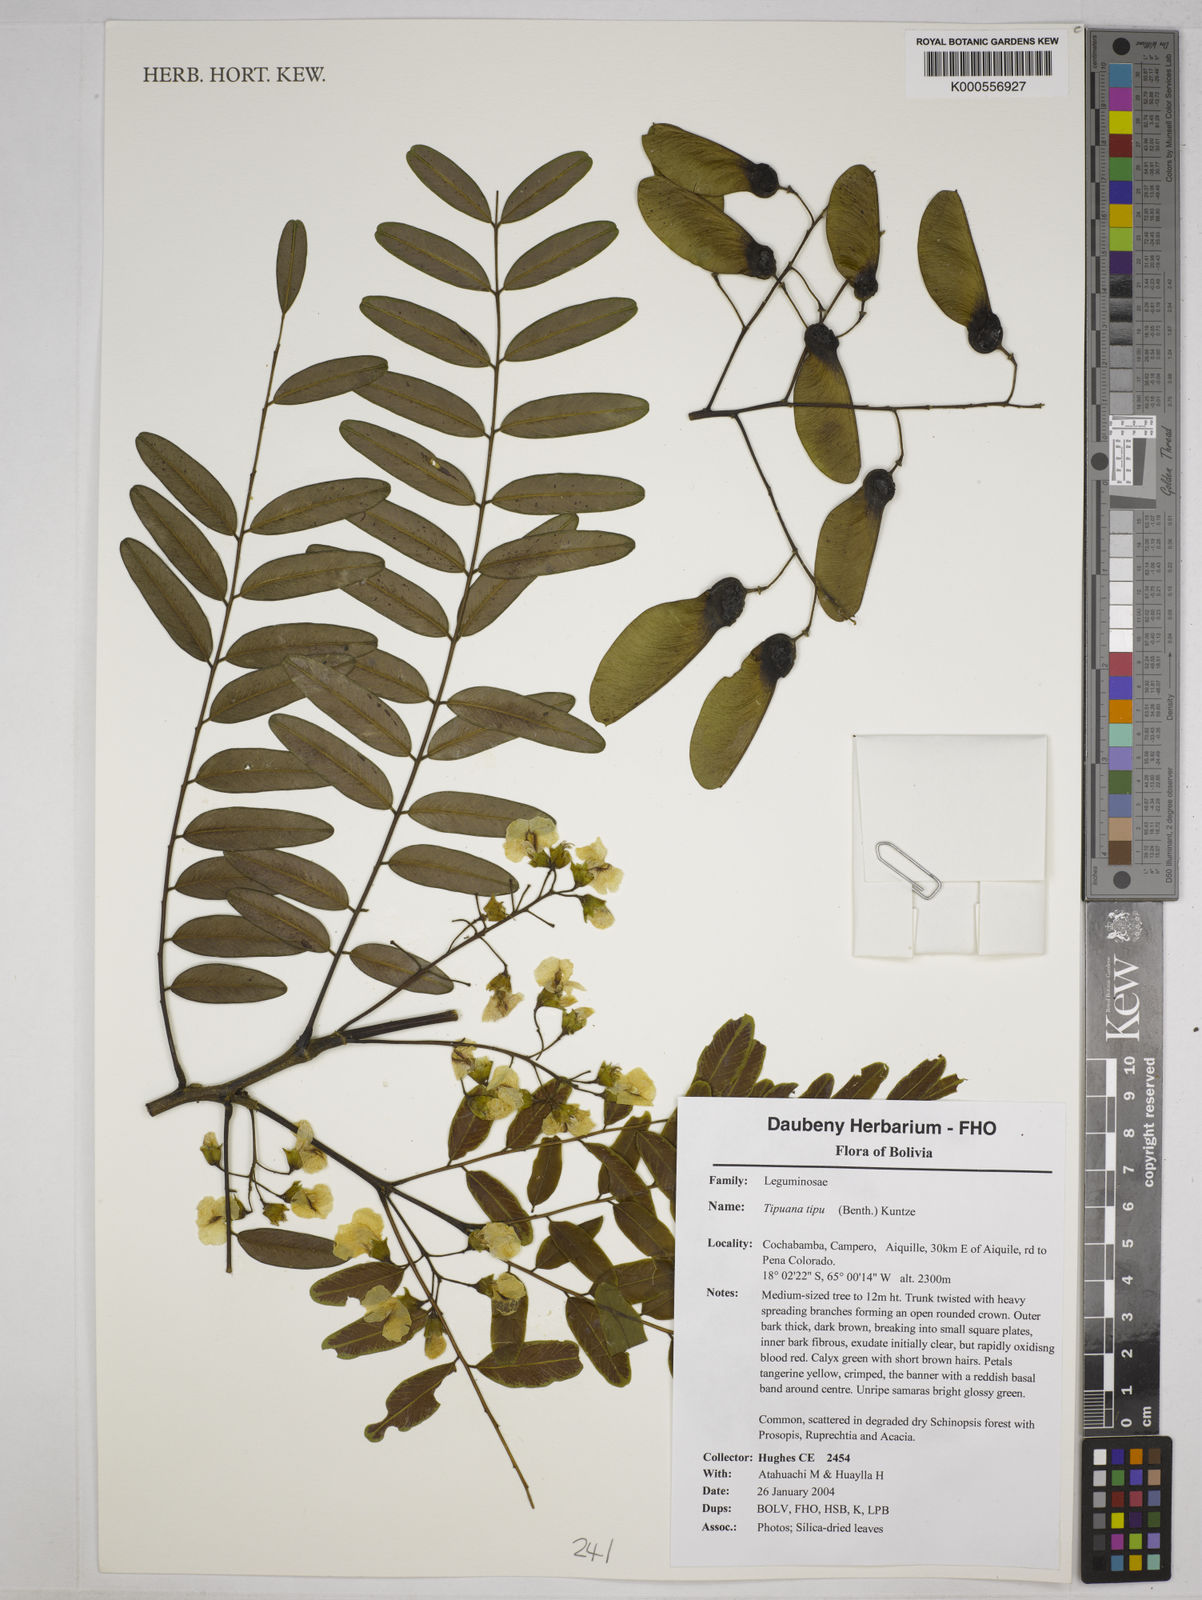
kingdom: Plantae
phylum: Tracheophyta
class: Magnoliopsida
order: Fabales
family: Fabaceae
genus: Tipuana
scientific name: Tipuana tipu
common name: Tiputree
